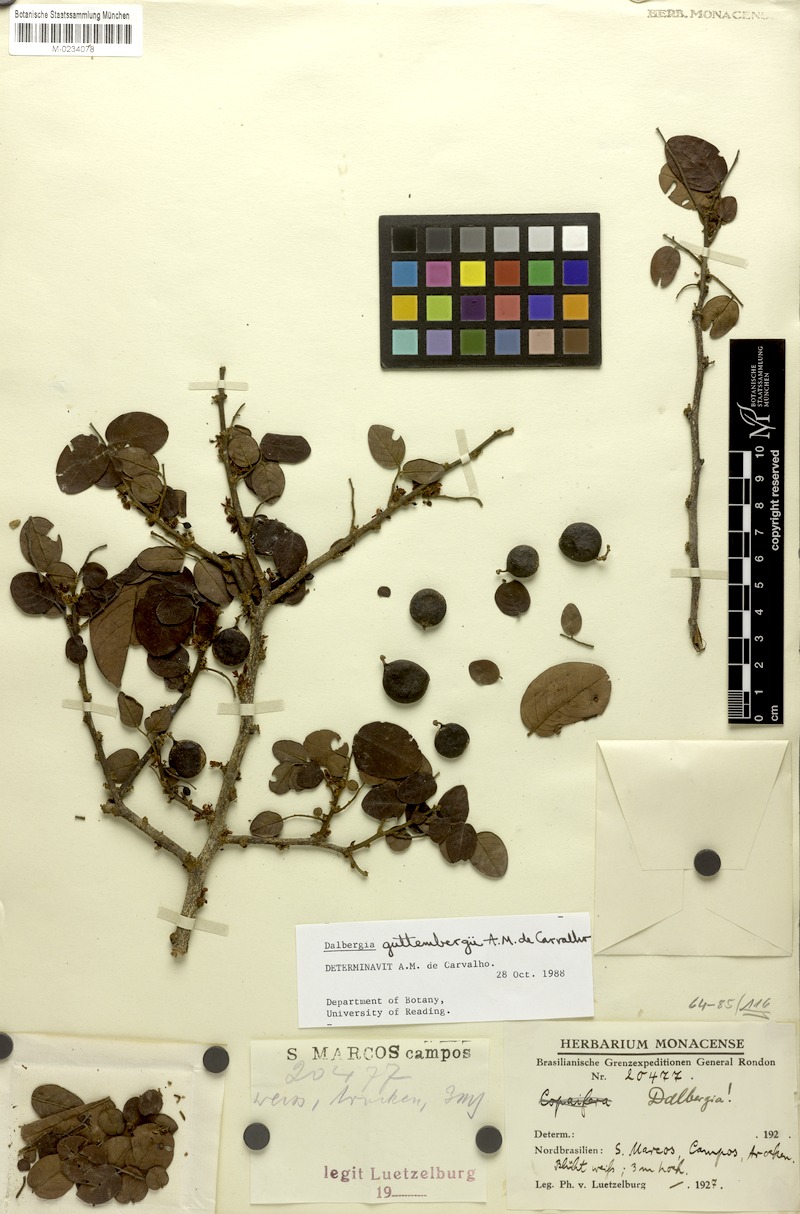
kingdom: Plantae
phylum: Tracheophyta
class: Magnoliopsida
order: Fabales
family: Fabaceae
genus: Dalbergia
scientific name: Dalbergia guttembergii
